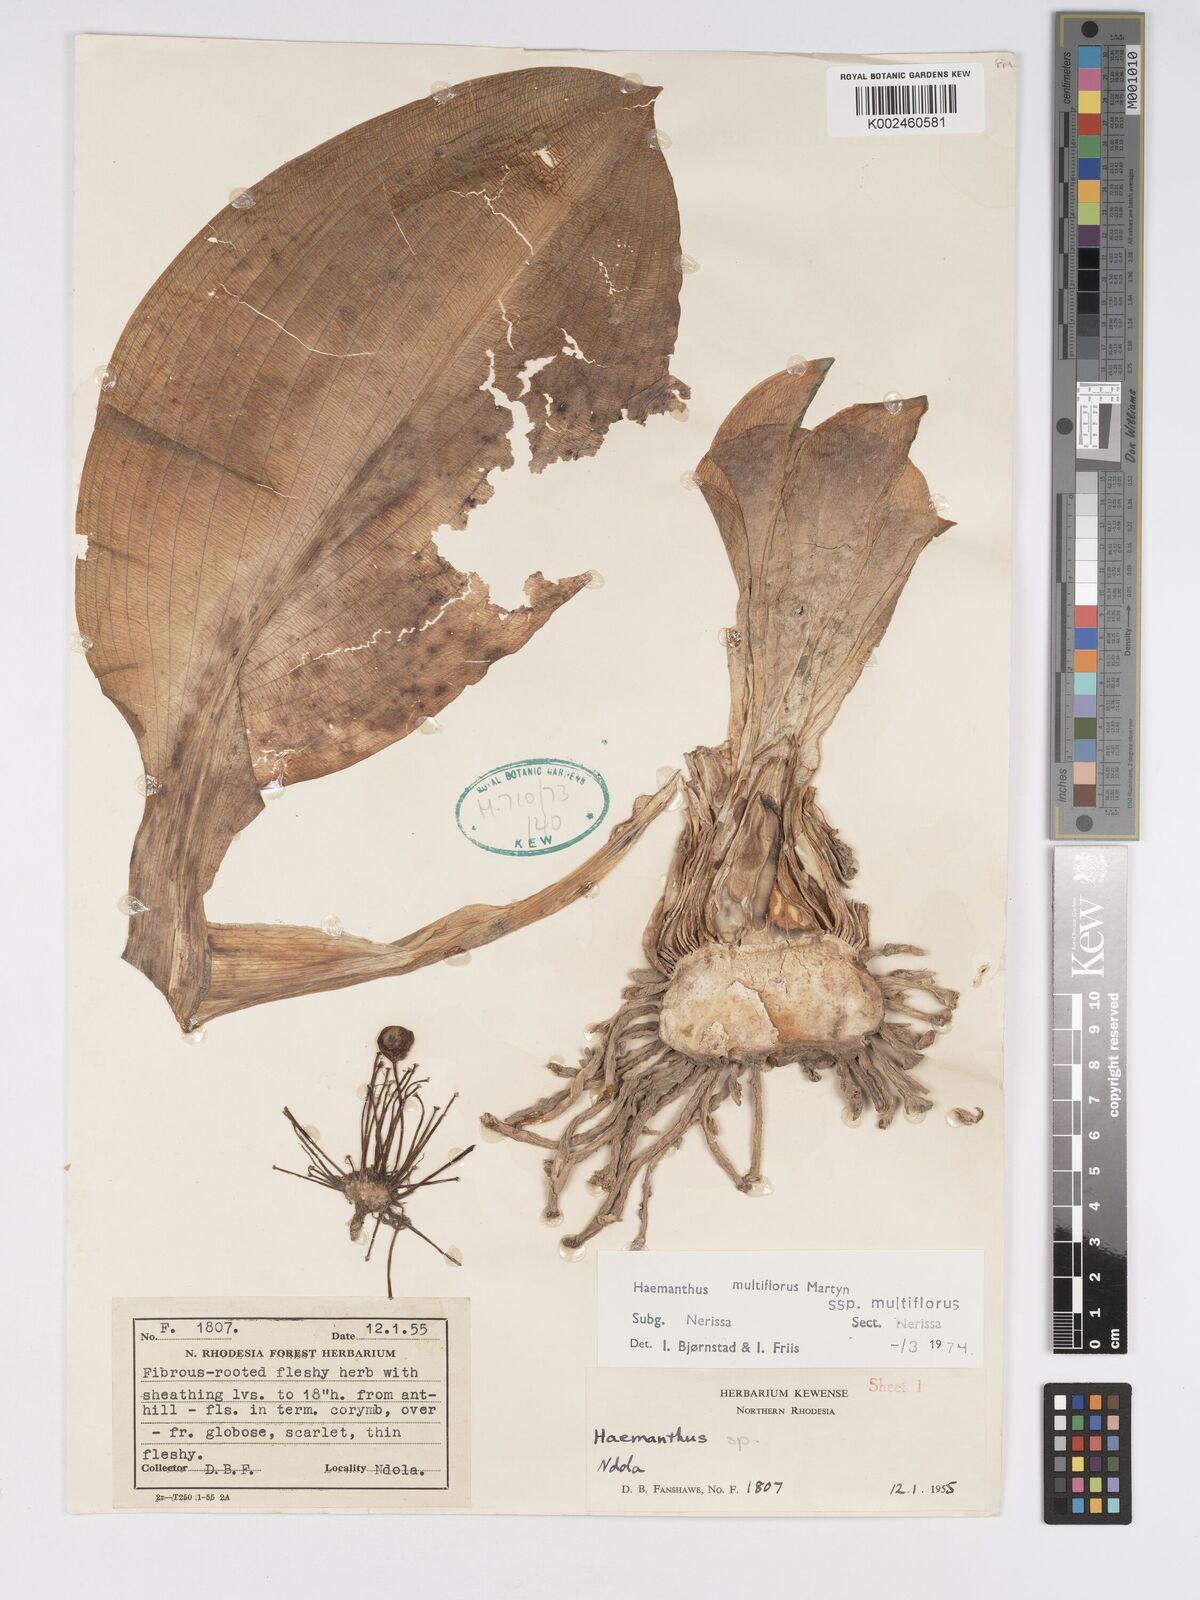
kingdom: Plantae
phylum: Tracheophyta
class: Liliopsida
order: Asparagales
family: Amaryllidaceae
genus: Scadoxus
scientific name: Scadoxus multiflorus
